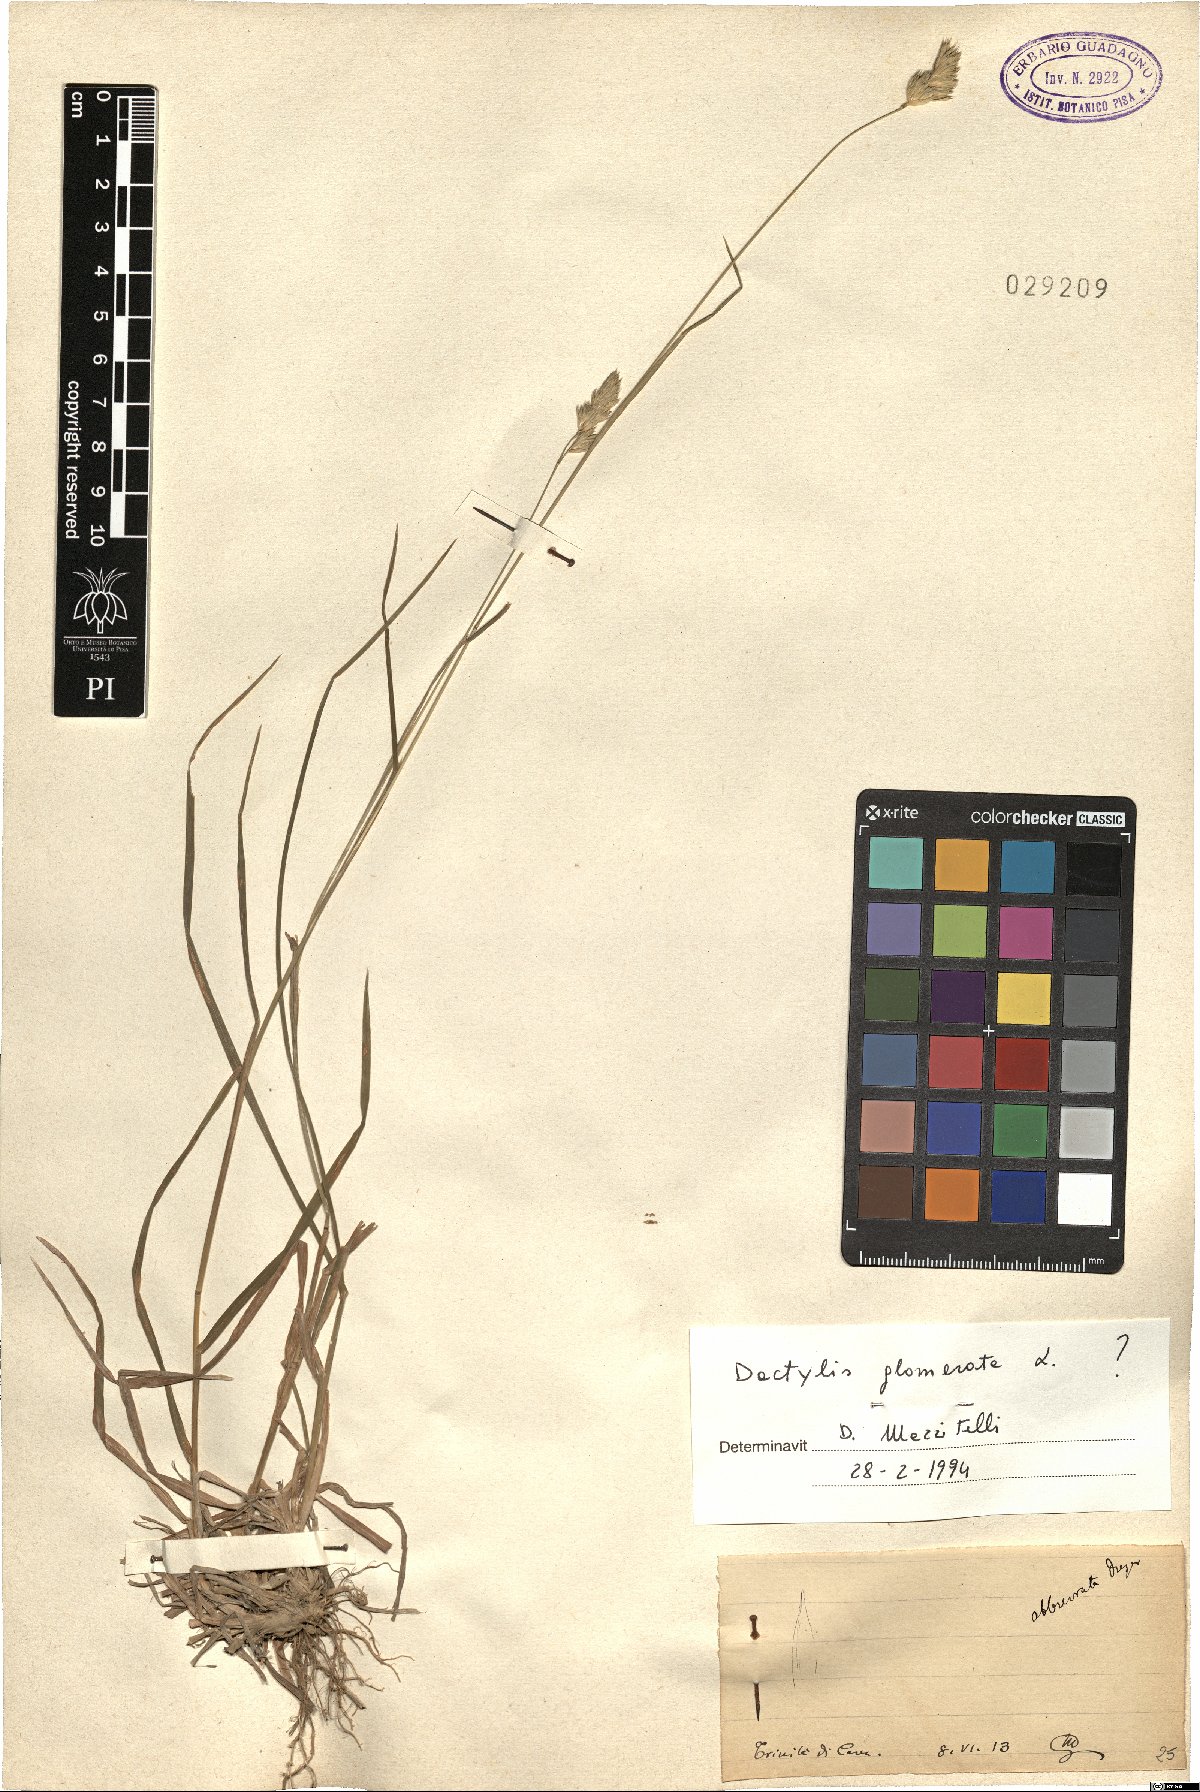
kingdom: Plantae
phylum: Tracheophyta
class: Liliopsida
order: Poales
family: Poaceae
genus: Dactylis
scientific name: Dactylis glomerata
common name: Orchardgrass
